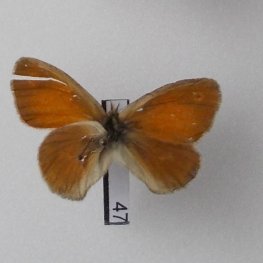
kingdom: Animalia
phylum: Arthropoda
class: Insecta
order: Lepidoptera
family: Nymphalidae
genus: Coenonympha
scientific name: Coenonympha tullia
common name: Large Heath
